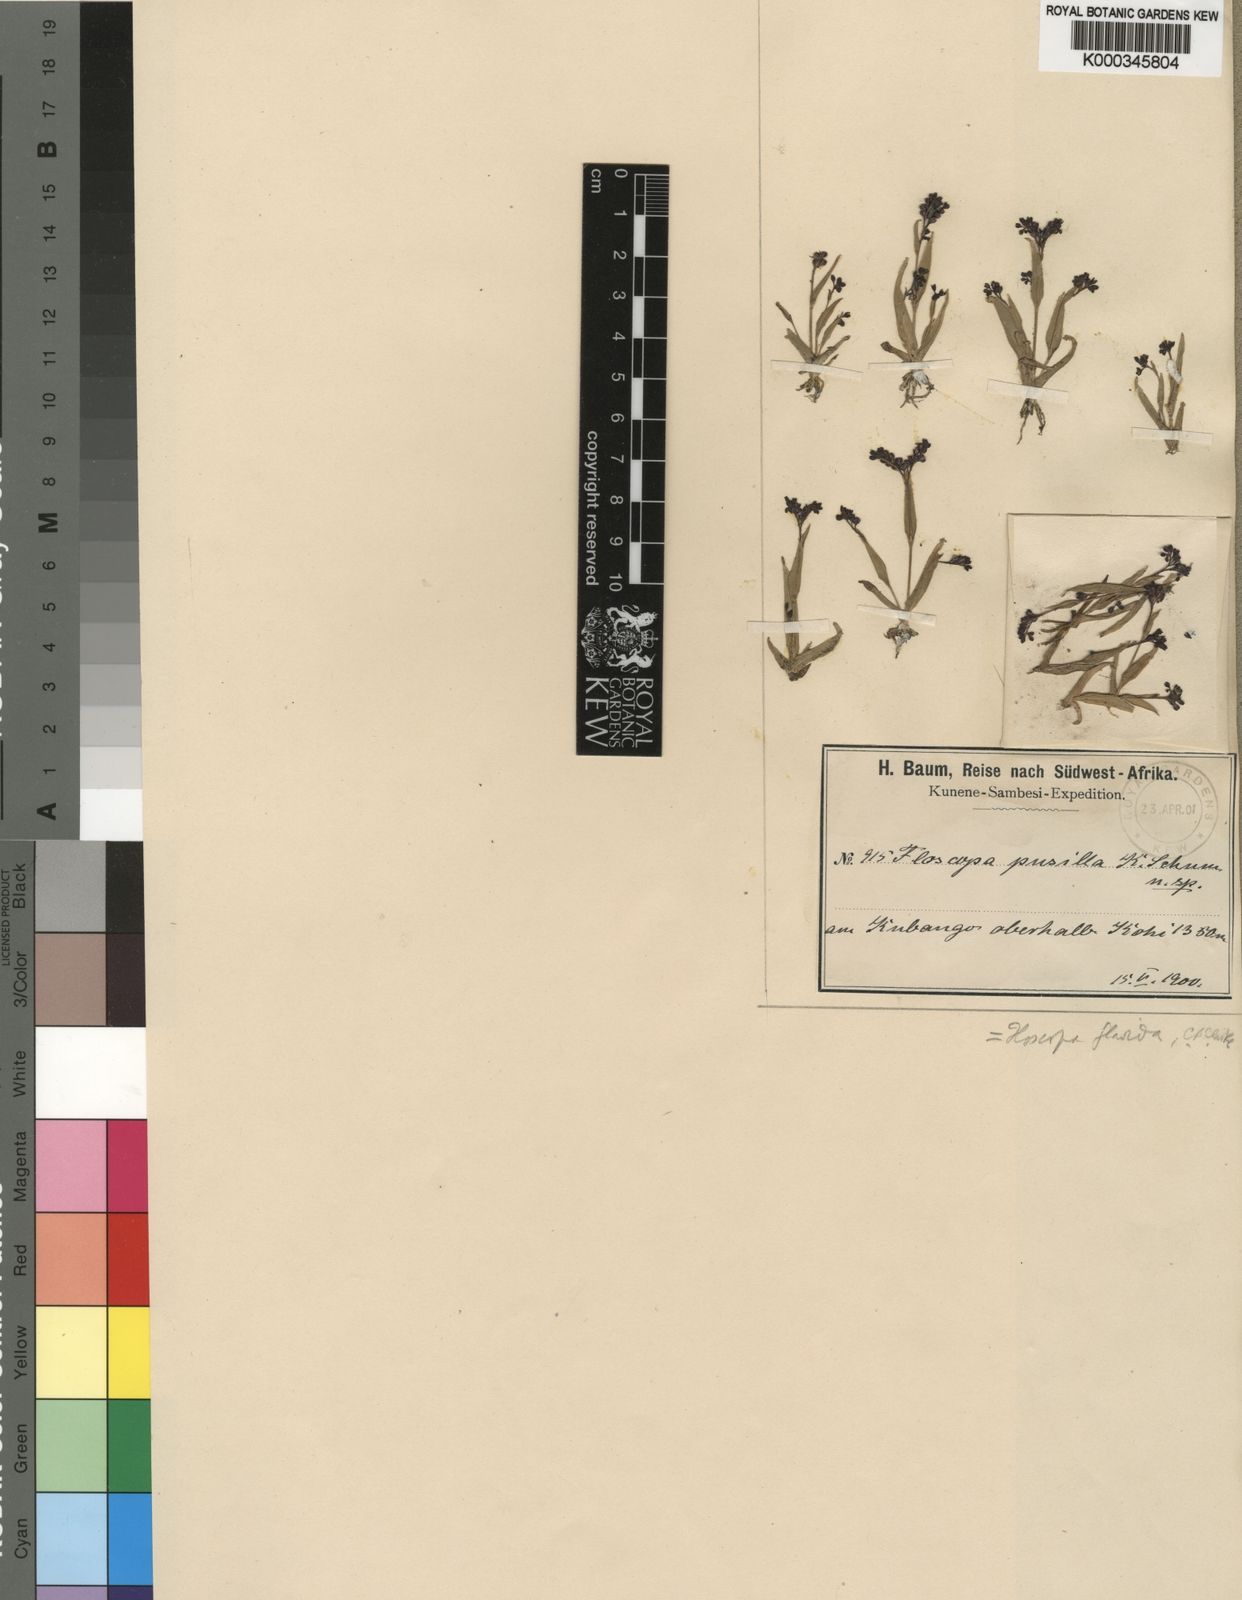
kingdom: Plantae
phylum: Tracheophyta
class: Liliopsida
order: Commelinales
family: Commelinaceae
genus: Floscopa
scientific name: Floscopa flavida
